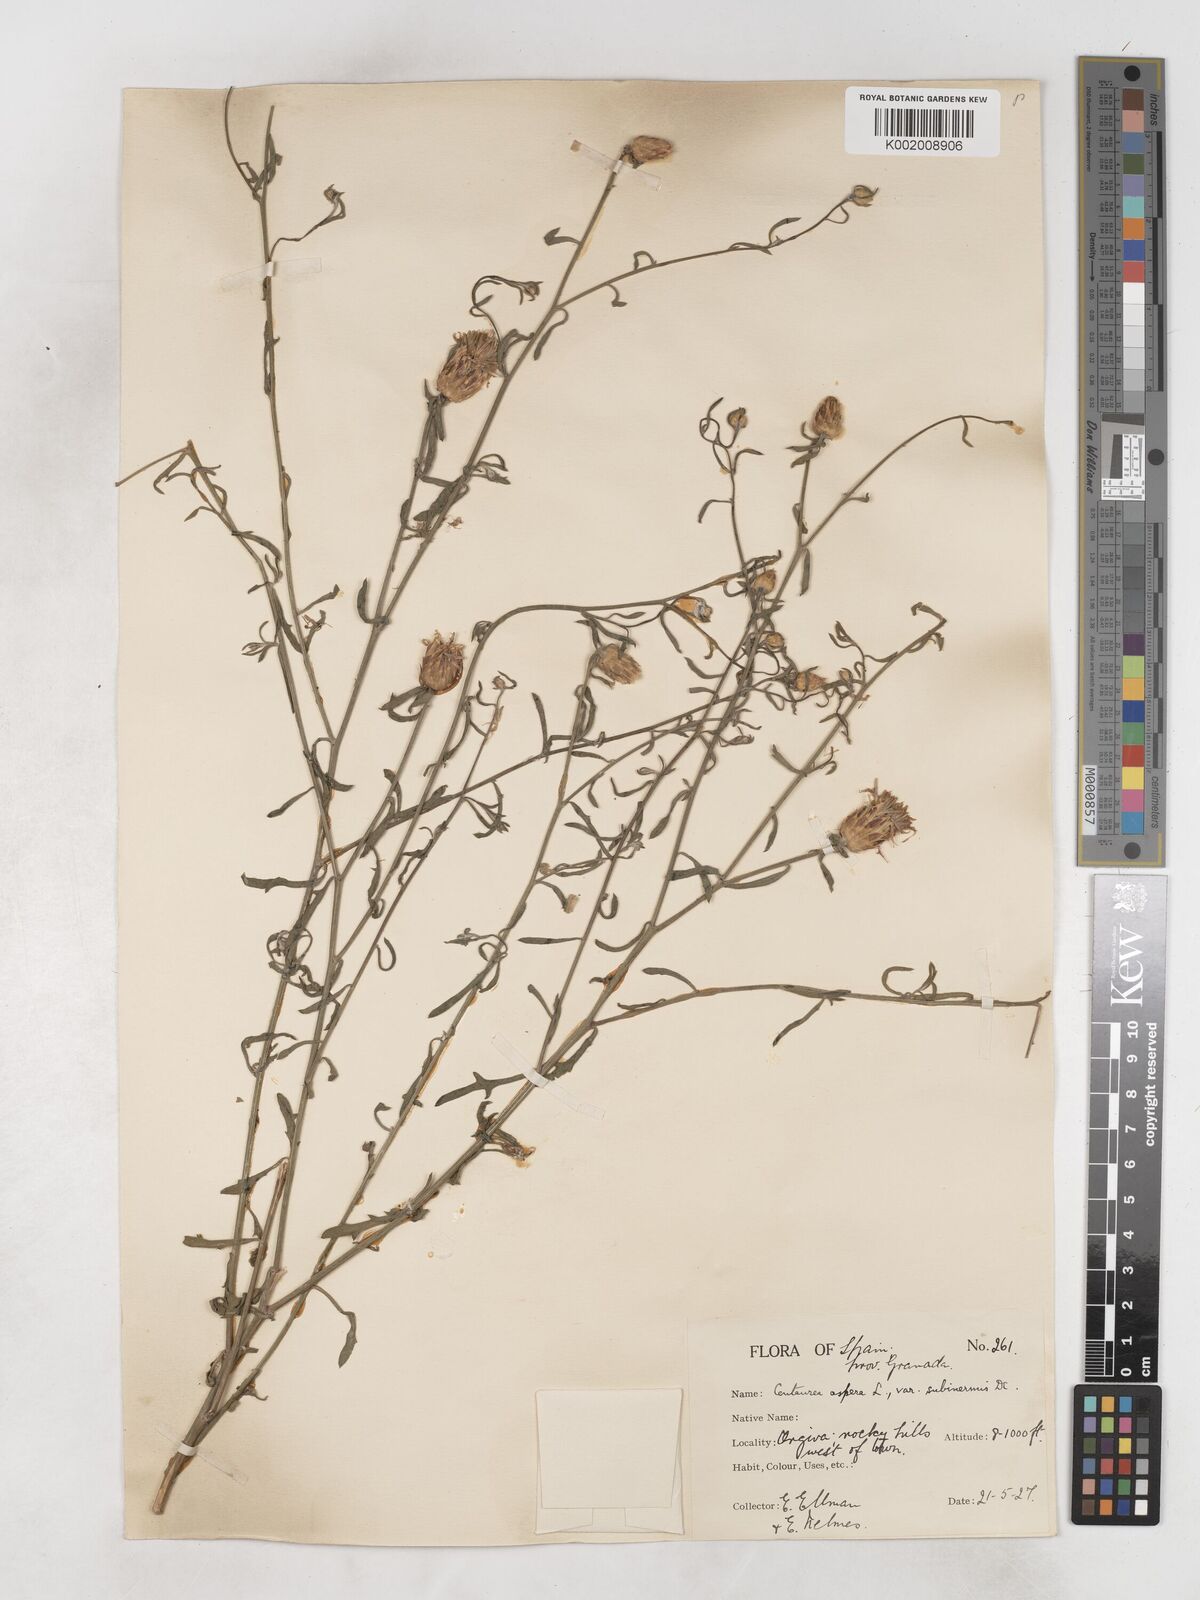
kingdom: Plantae
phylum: Tracheophyta
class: Magnoliopsida
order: Asterales
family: Asteraceae
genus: Centaurea
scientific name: Centaurea aspera
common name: Rough star-thistle
